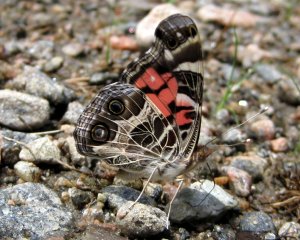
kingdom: Animalia
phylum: Arthropoda
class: Insecta
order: Lepidoptera
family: Nymphalidae
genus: Vanessa
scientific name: Vanessa virginiensis
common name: American Lady
